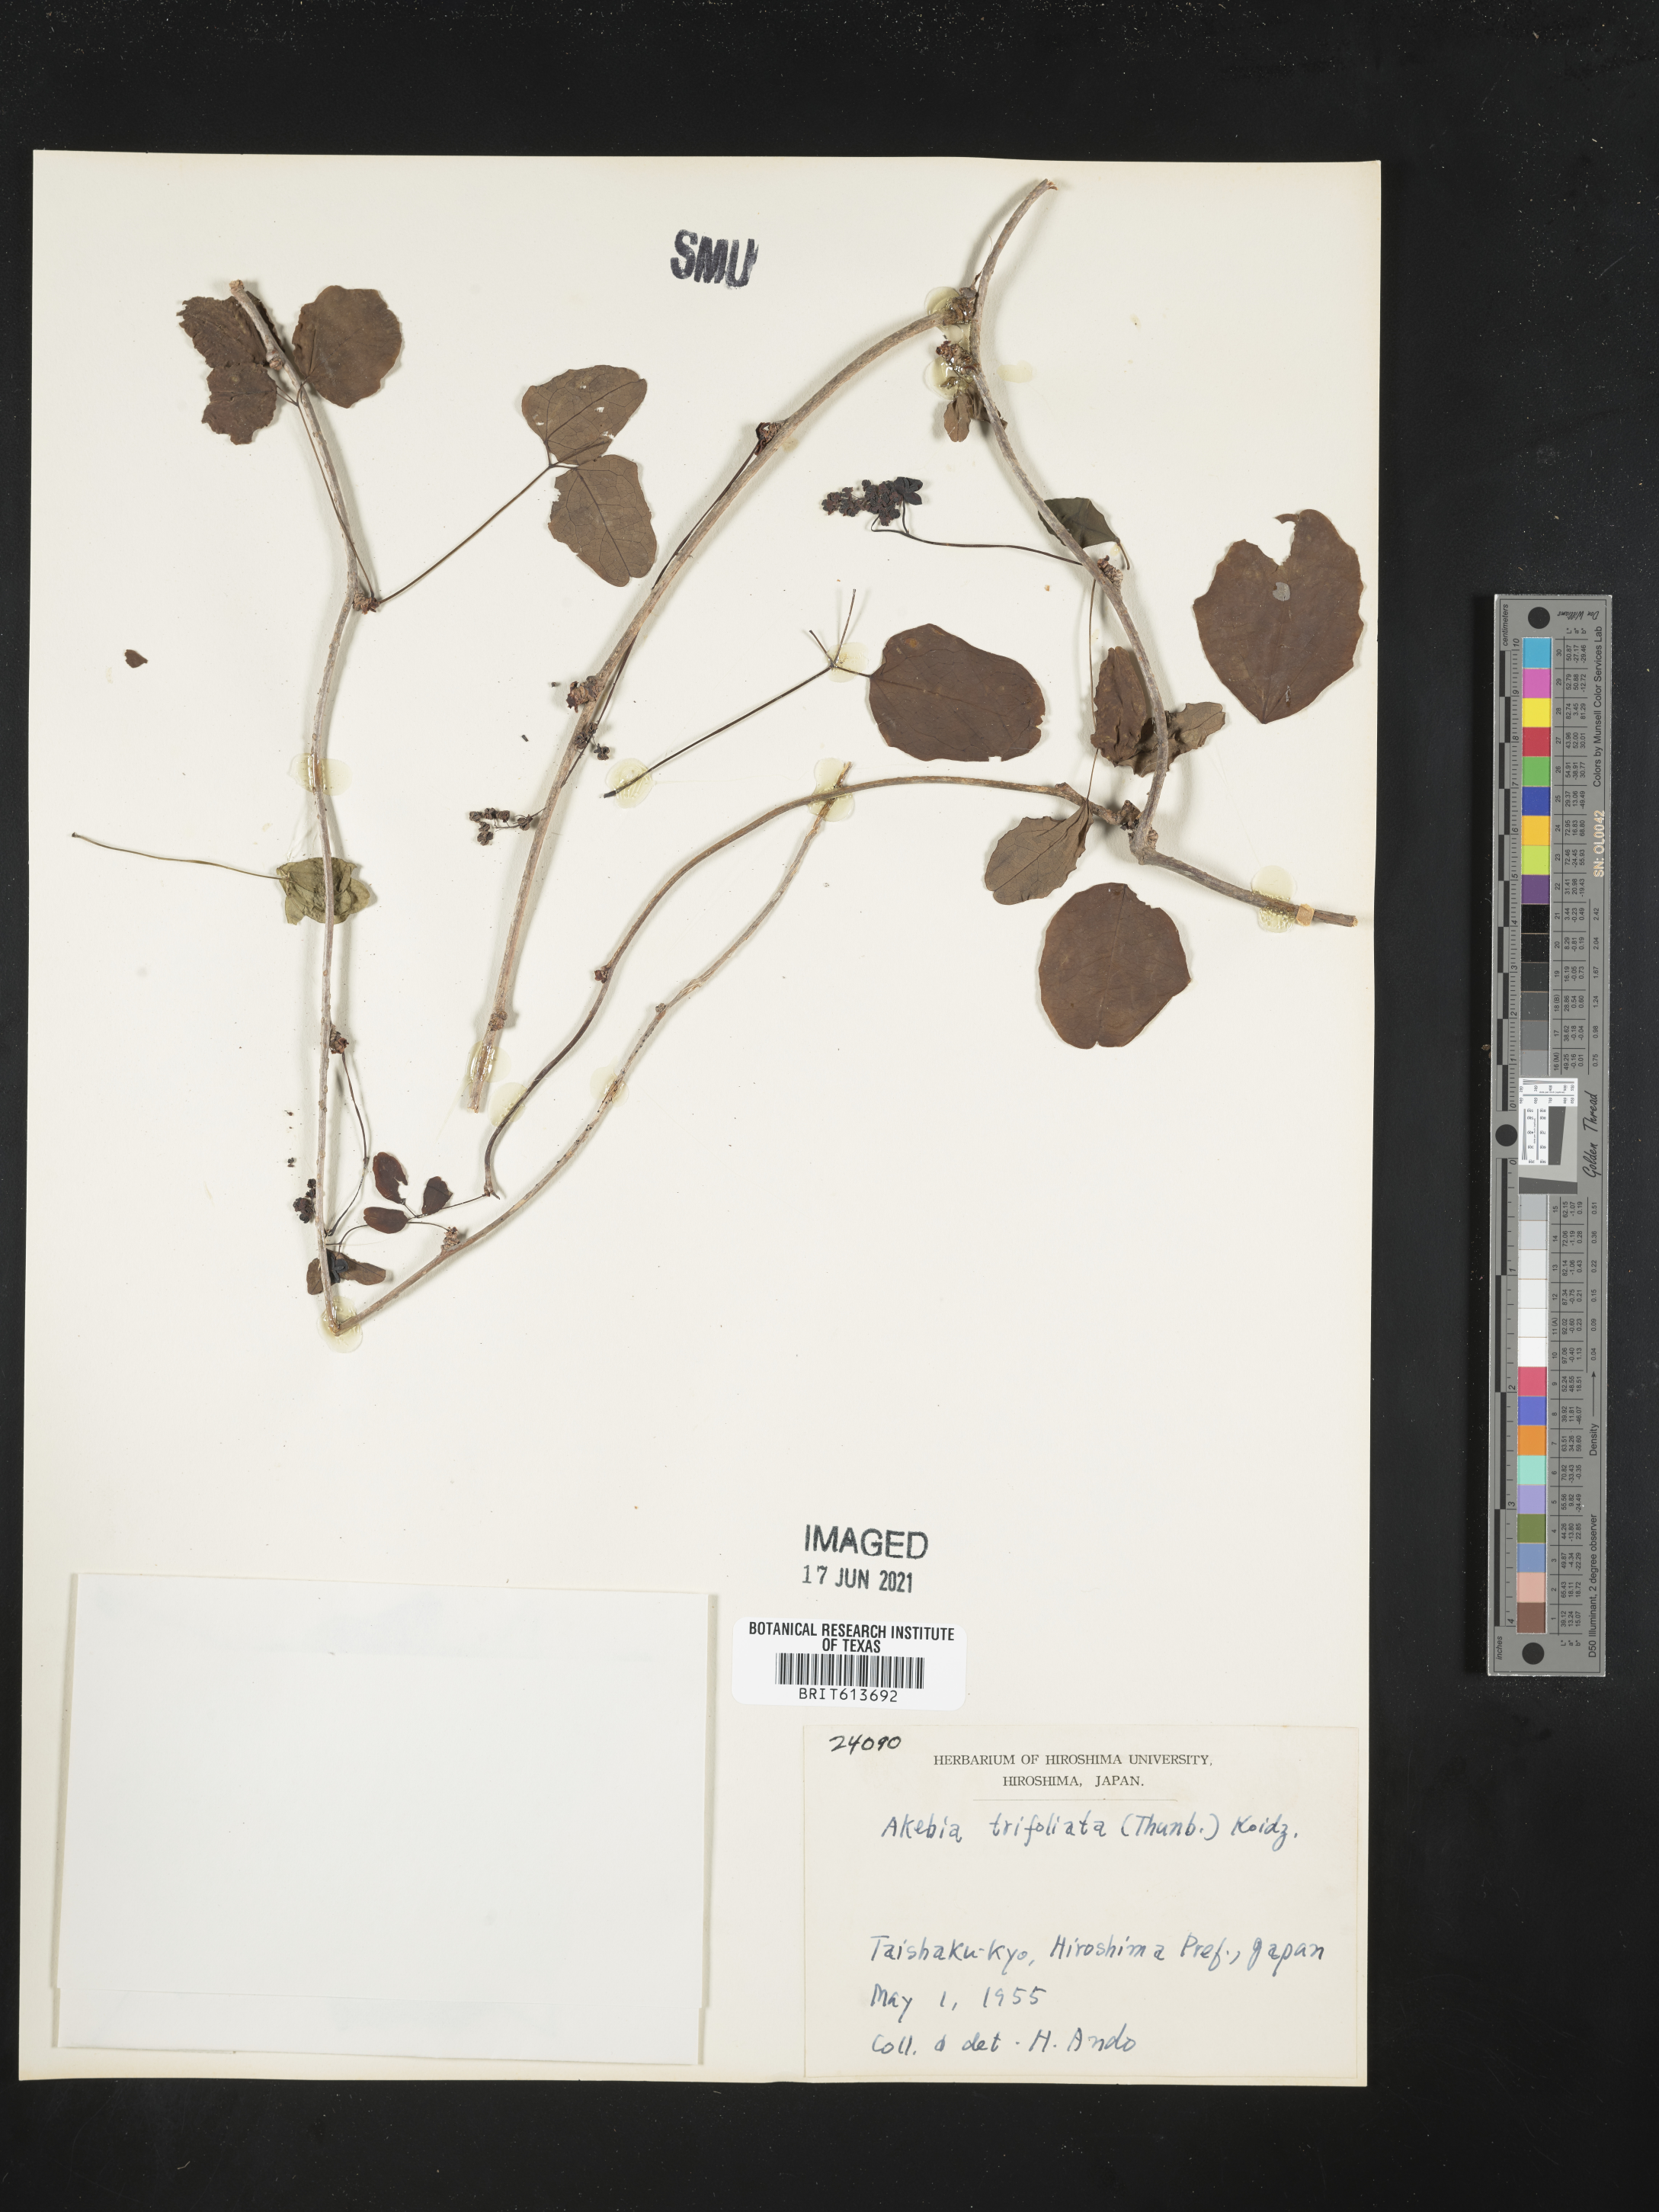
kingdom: Plantae
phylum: Tracheophyta
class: Magnoliopsida
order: Ranunculales
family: Lardizabalaceae
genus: Akebia
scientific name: Akebia trifoliata
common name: Chocolate-vine
